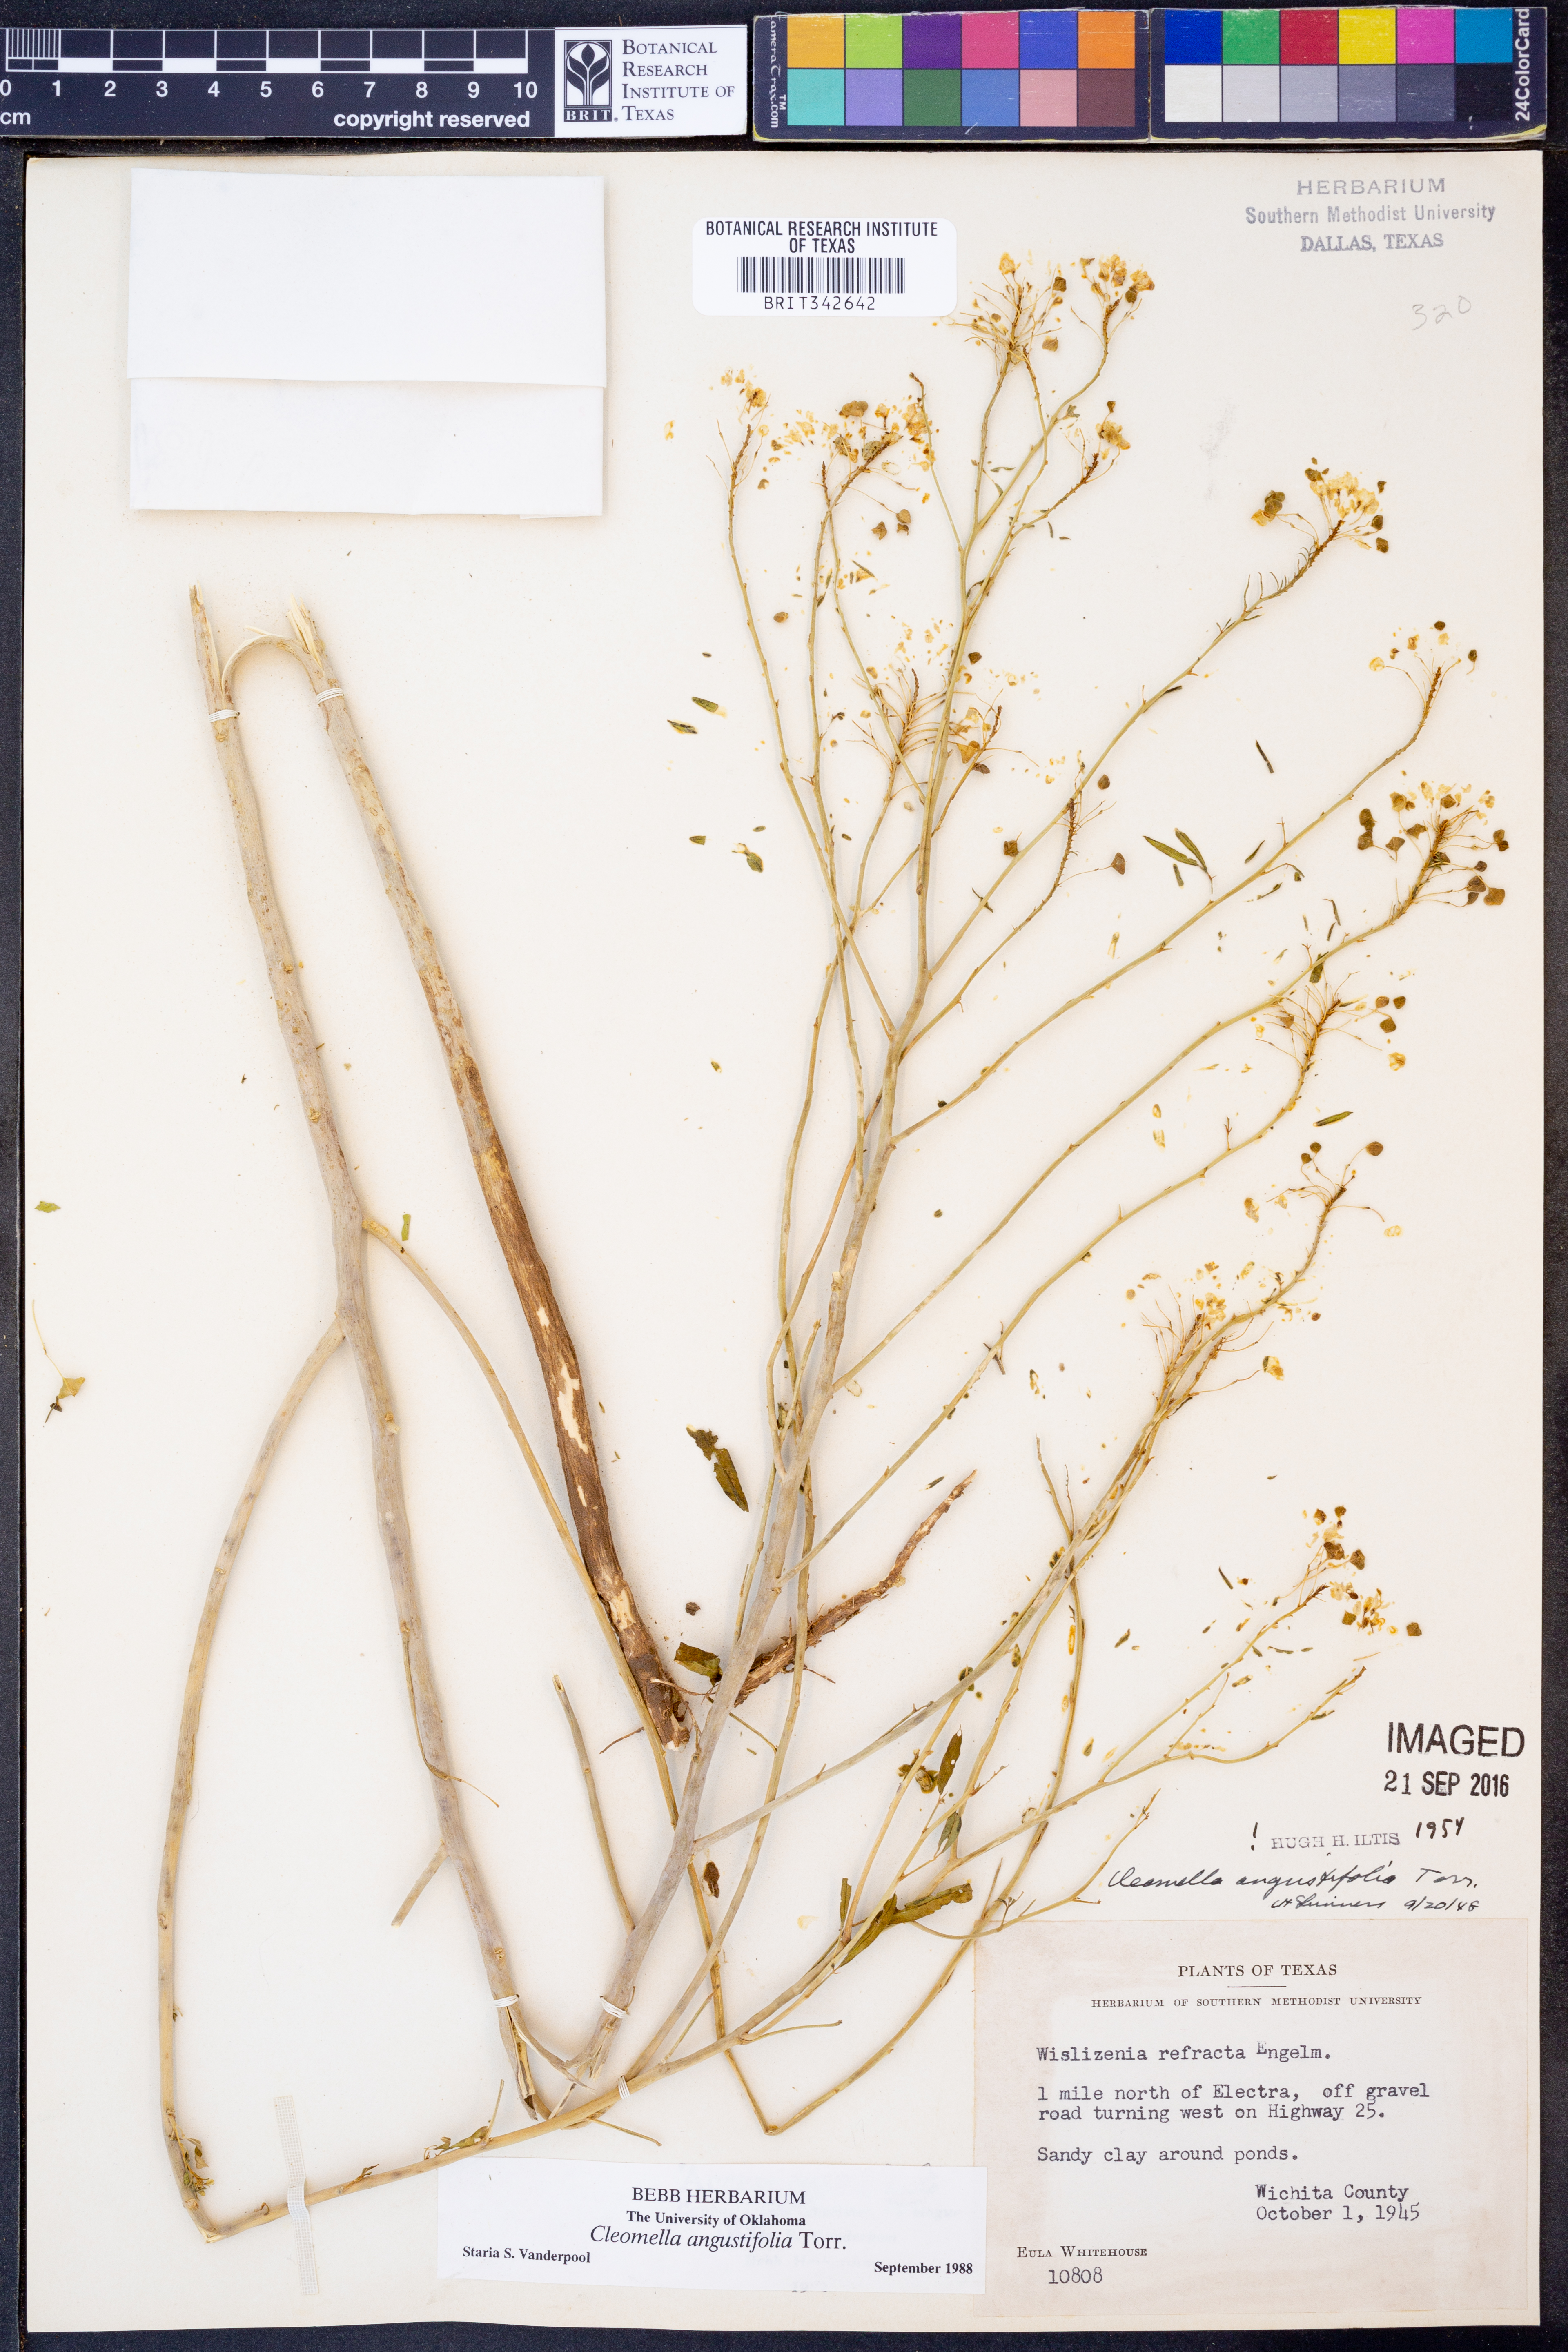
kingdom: Plantae
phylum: Tracheophyta
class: Magnoliopsida
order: Brassicales
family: Cleomaceae
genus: Cleomella
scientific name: Cleomella angustifolia
